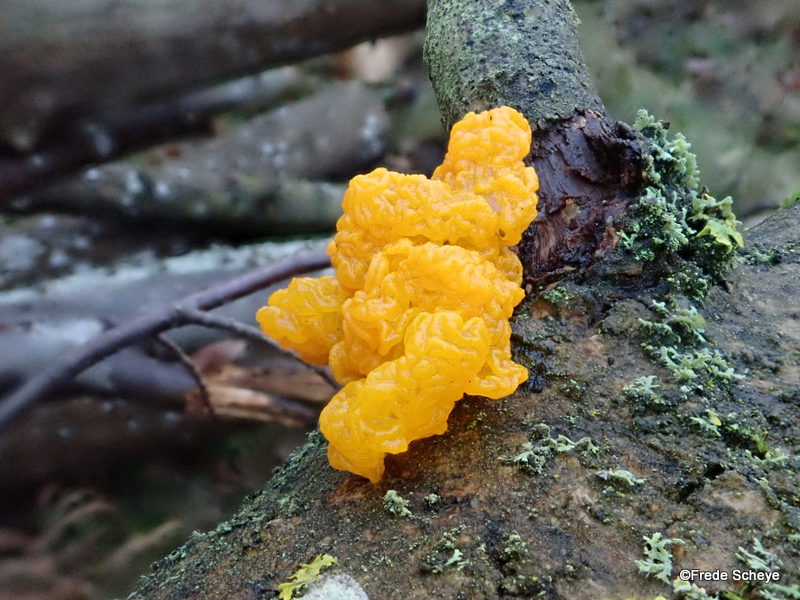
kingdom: Fungi
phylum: Basidiomycota
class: Tremellomycetes
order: Tremellales
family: Tremellaceae
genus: Tremella
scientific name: Tremella mesenterica
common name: gul bævresvamp
